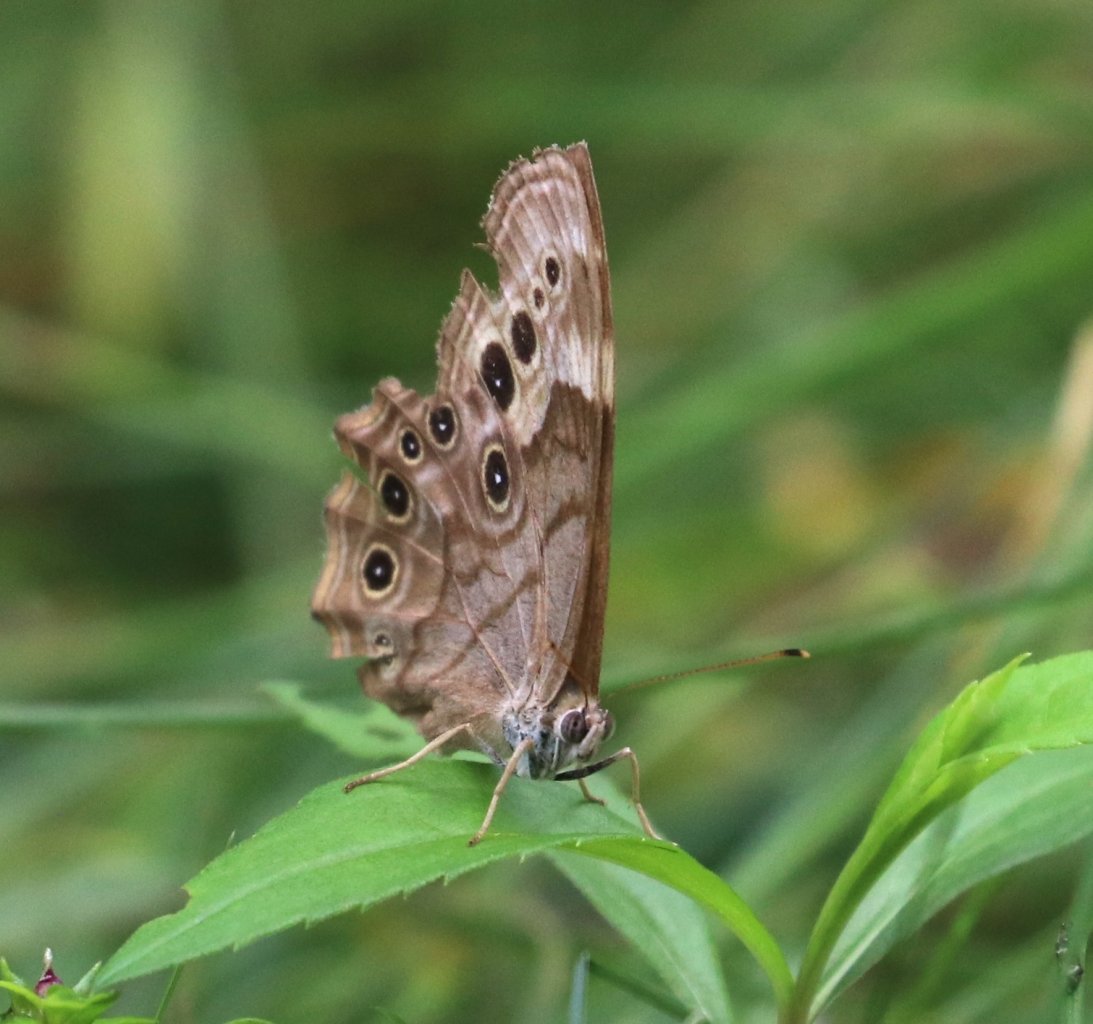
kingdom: Animalia
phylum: Arthropoda
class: Insecta
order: Lepidoptera
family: Nymphalidae
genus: Lethe
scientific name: Lethe anthedon
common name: Northern Pearly-Eye
